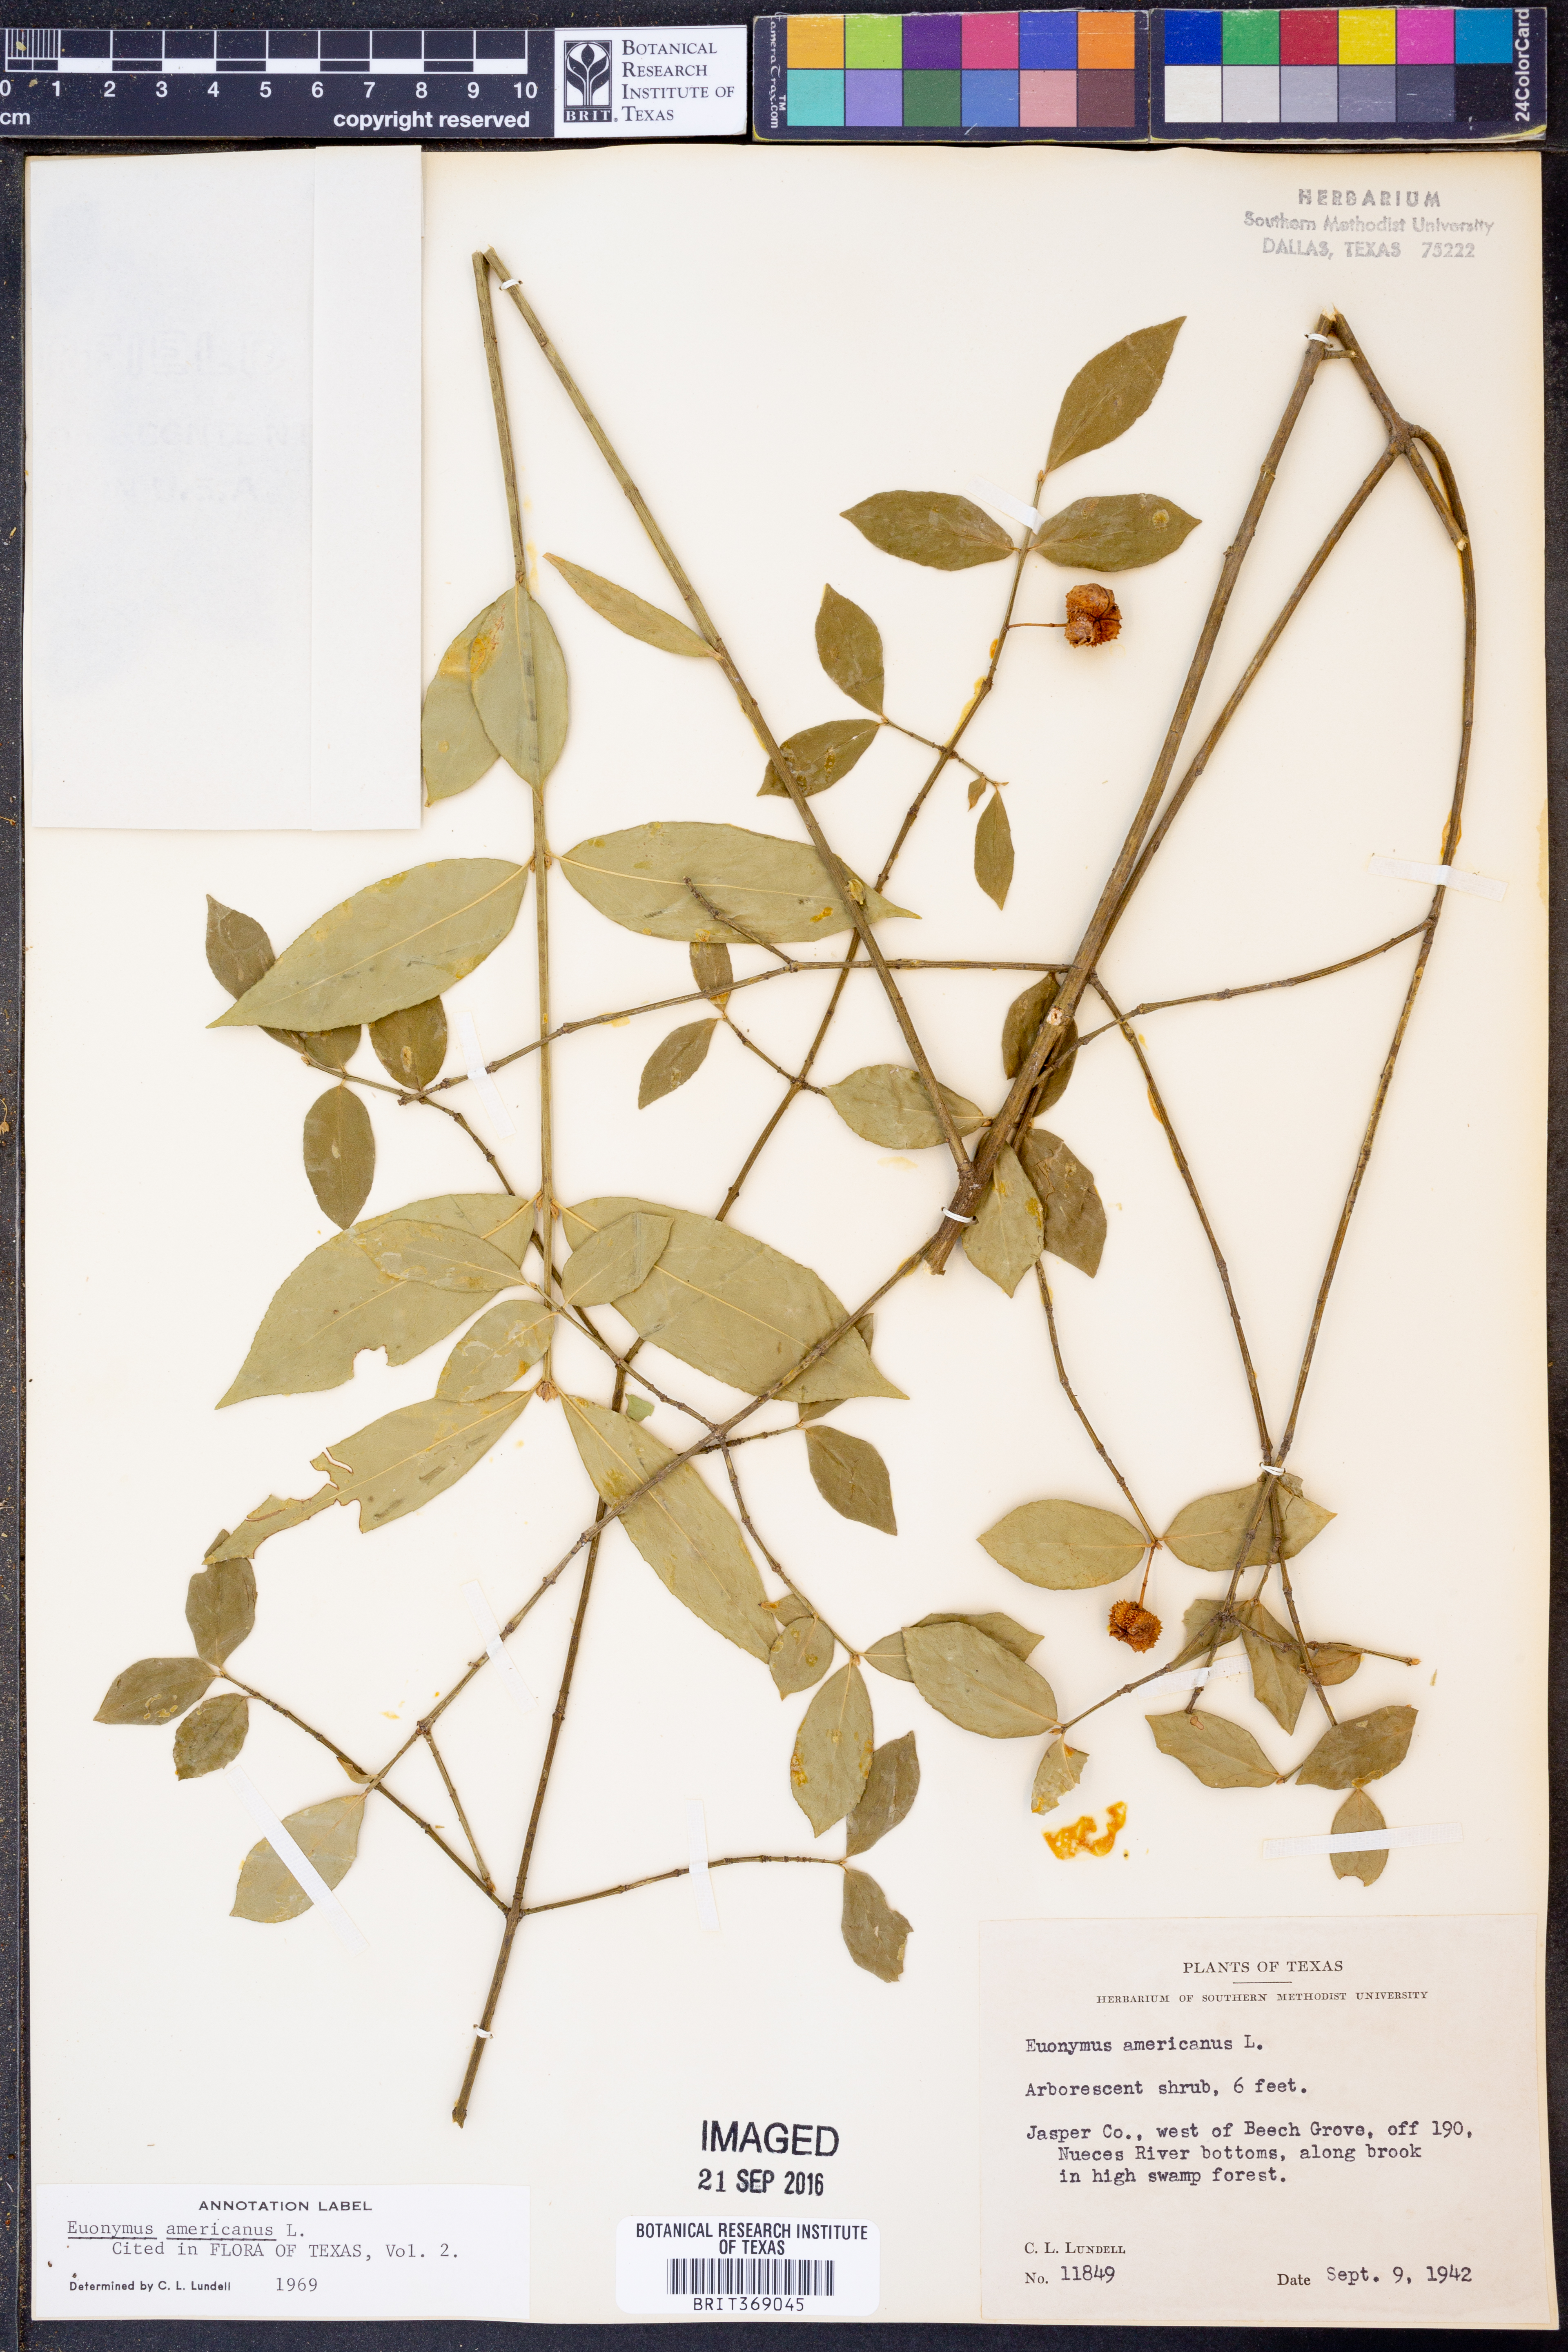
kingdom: Plantae
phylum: Tracheophyta
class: Magnoliopsida
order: Celastrales
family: Celastraceae
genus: Euonymus
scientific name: Euonymus americanus
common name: Bursting-heart
